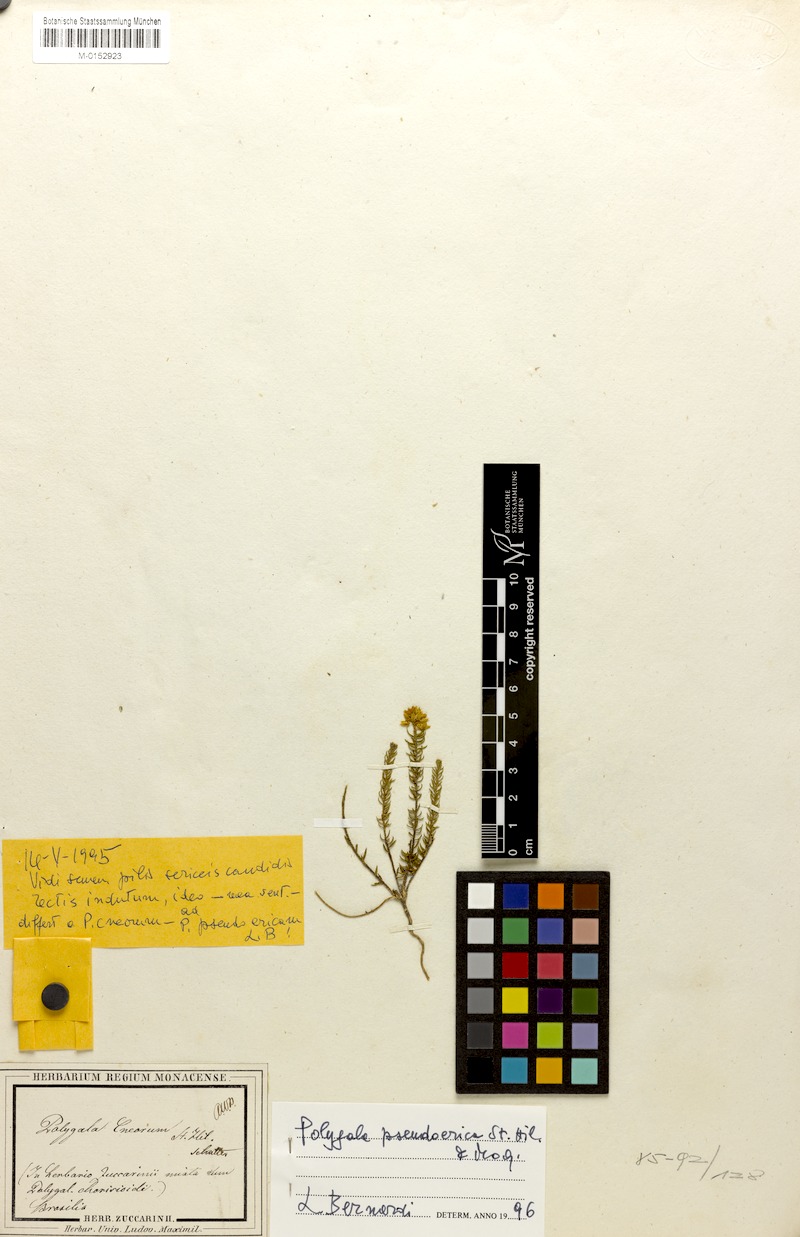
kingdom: Plantae
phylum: Tracheophyta
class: Magnoliopsida
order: Fabales
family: Polygalaceae
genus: Polygala
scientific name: Polygala bryoides
